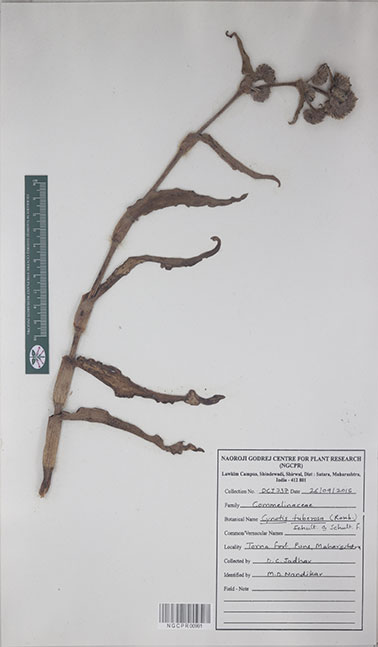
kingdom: Plantae
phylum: Tracheophyta
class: Liliopsida
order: Commelinales
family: Commelinaceae
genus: Cyanotis
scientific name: Cyanotis tuberosa
